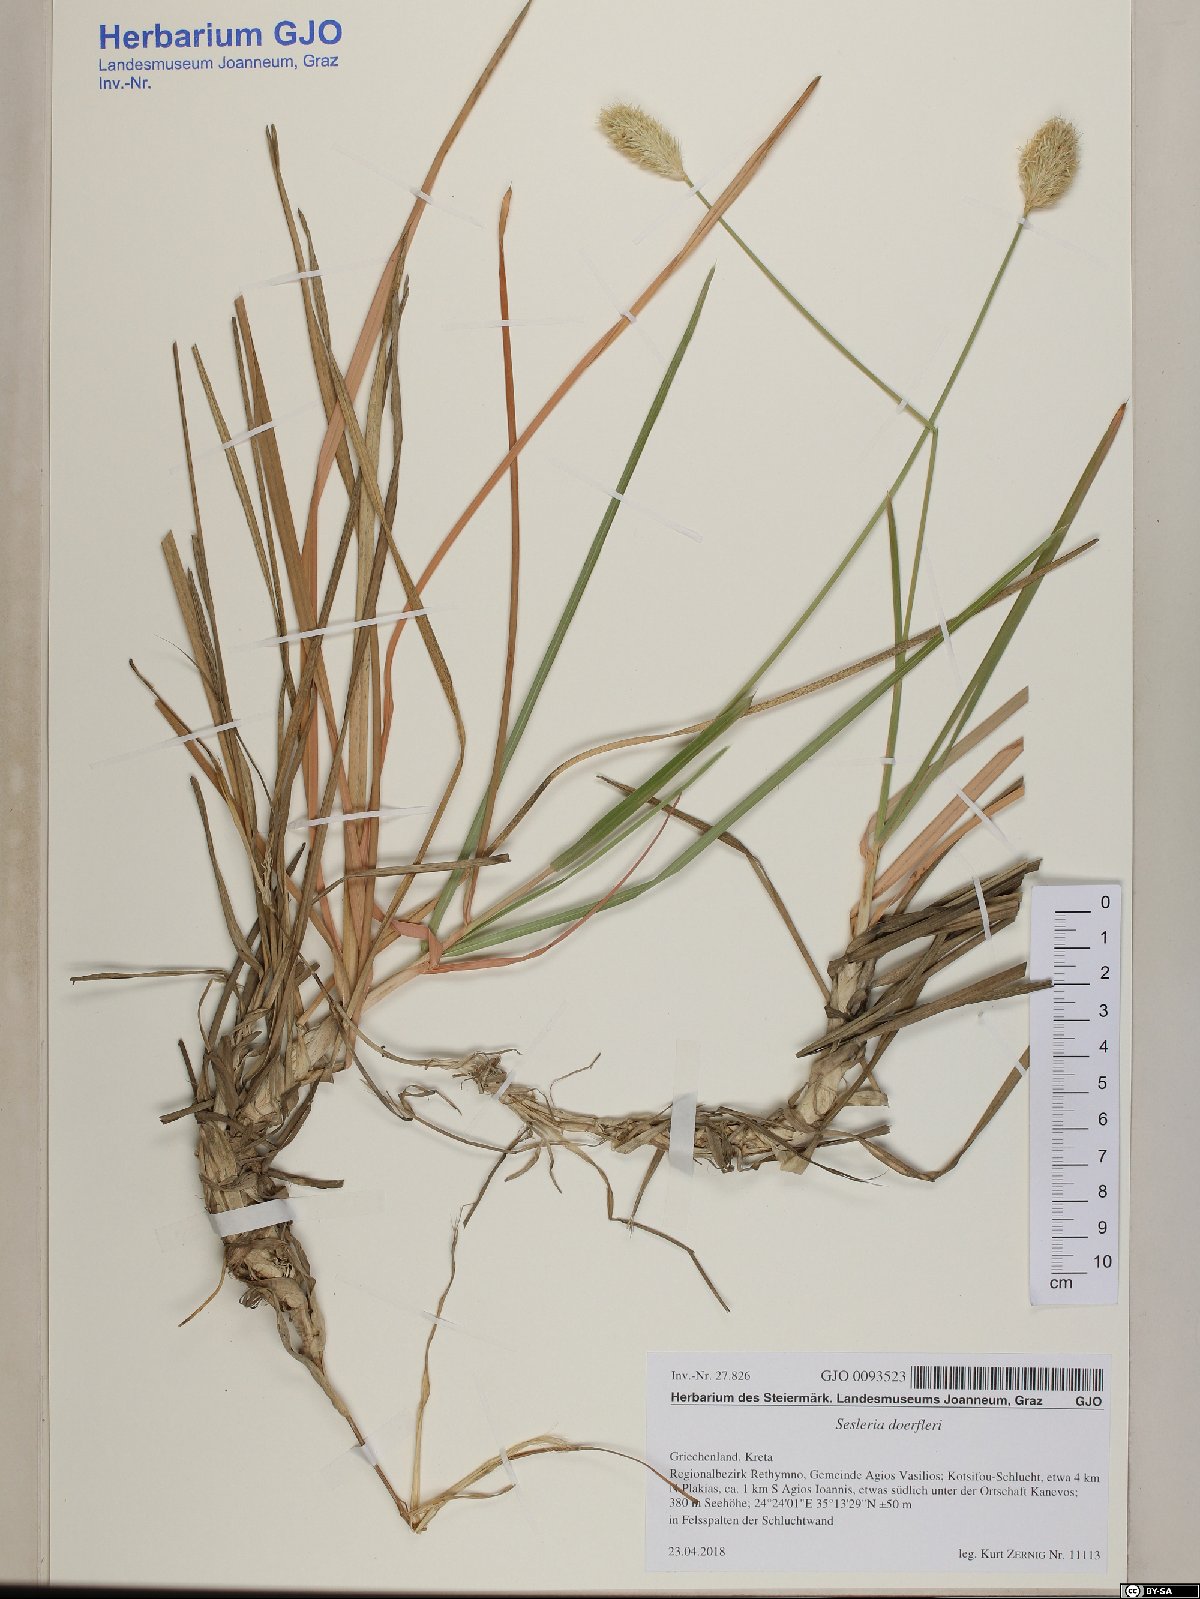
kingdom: Plantae
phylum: Tracheophyta
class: Liliopsida
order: Poales
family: Poaceae
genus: Sesleria
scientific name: Sesleria doerfleri
